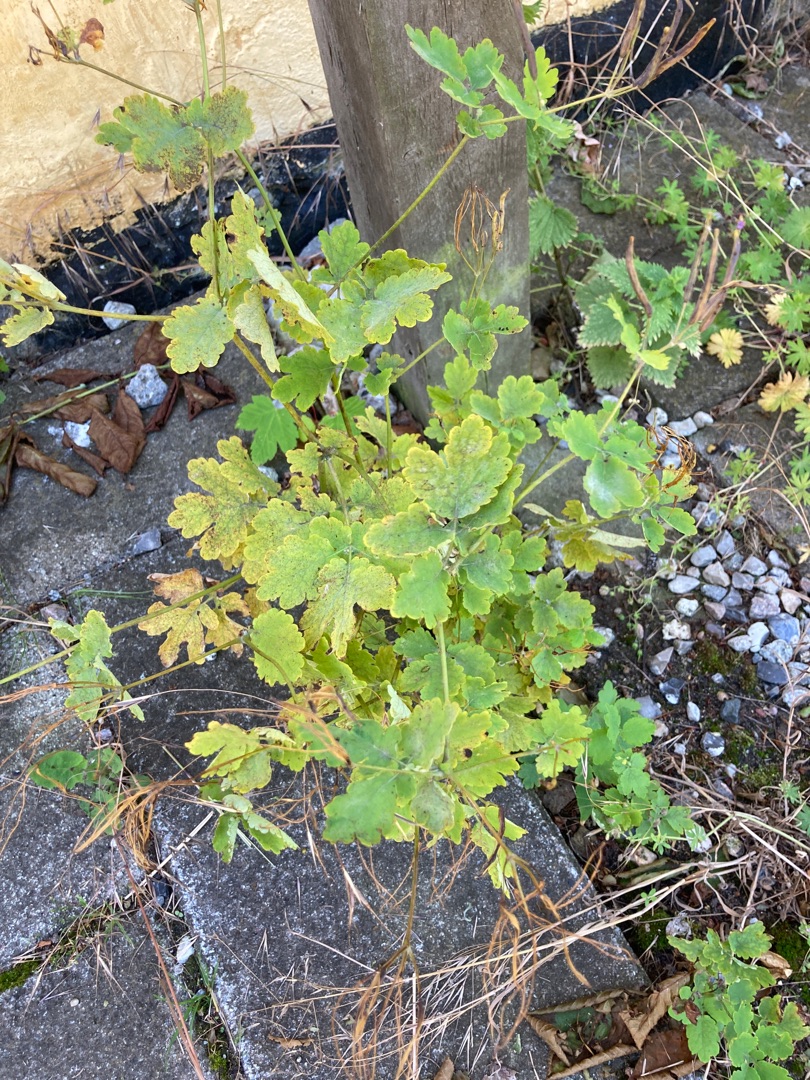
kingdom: Plantae
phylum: Tracheophyta
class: Magnoliopsida
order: Ranunculales
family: Papaveraceae
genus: Chelidonium
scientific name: Chelidonium majus
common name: Svaleurt
